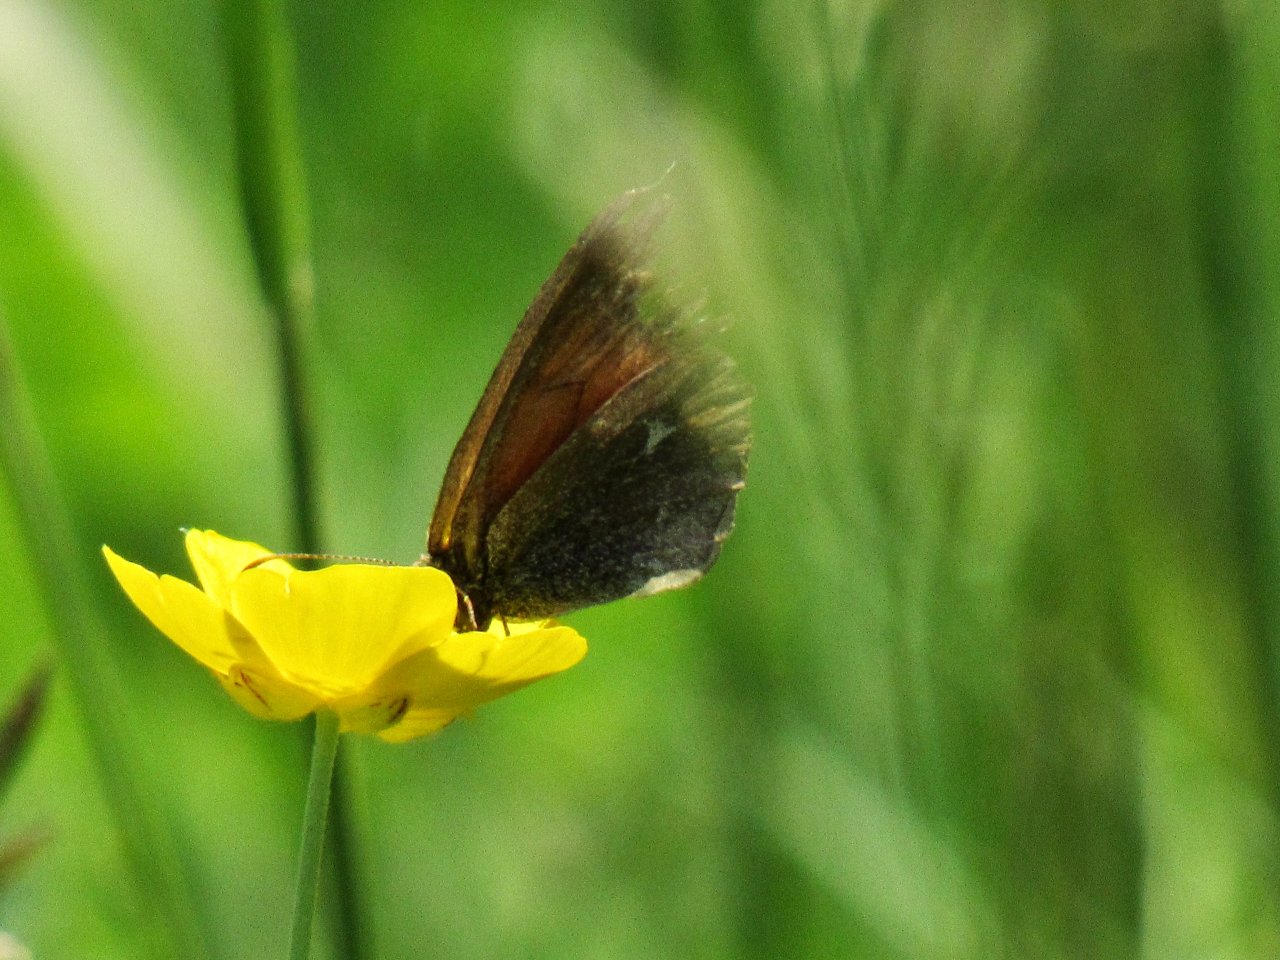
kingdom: Animalia
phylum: Arthropoda
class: Insecta
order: Lepidoptera
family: Nymphalidae
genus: Coenonympha
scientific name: Coenonympha tullia
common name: Large Heath
